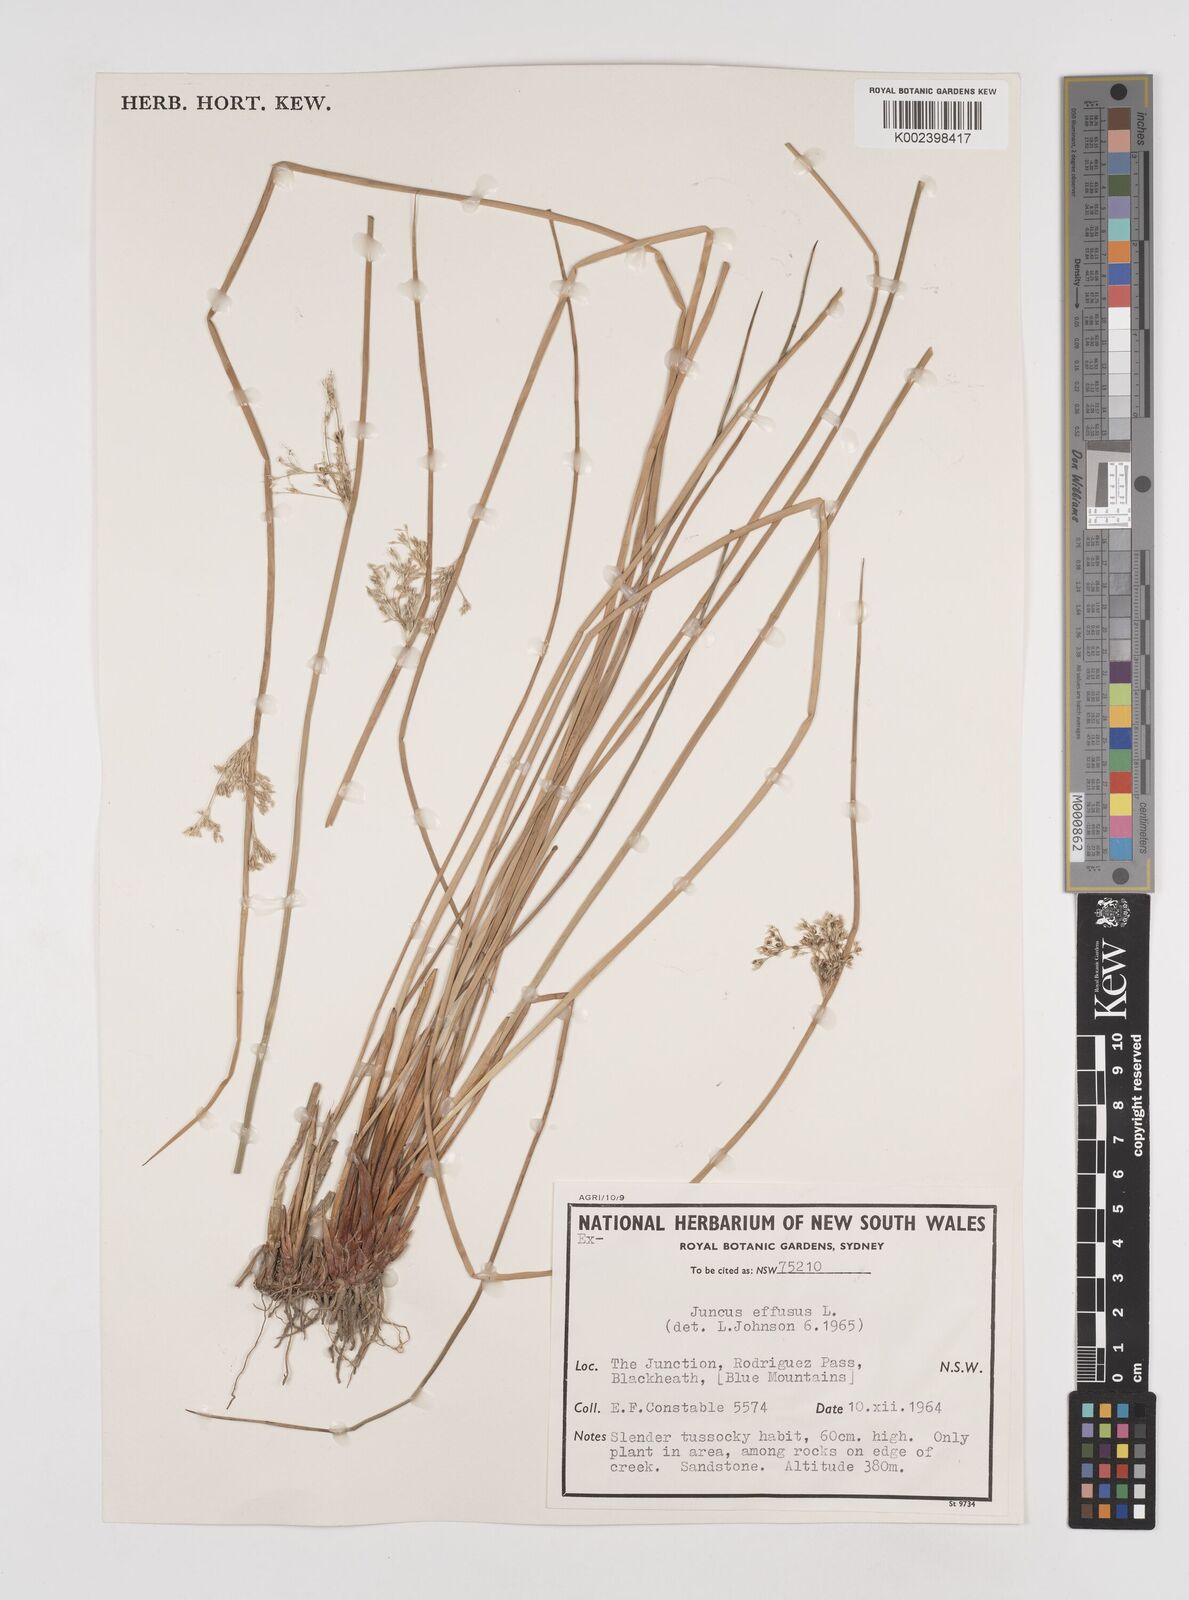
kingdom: Plantae
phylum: Tracheophyta
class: Liliopsida
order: Poales
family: Juncaceae
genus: Juncus
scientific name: Juncus effusus
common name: Soft rush
